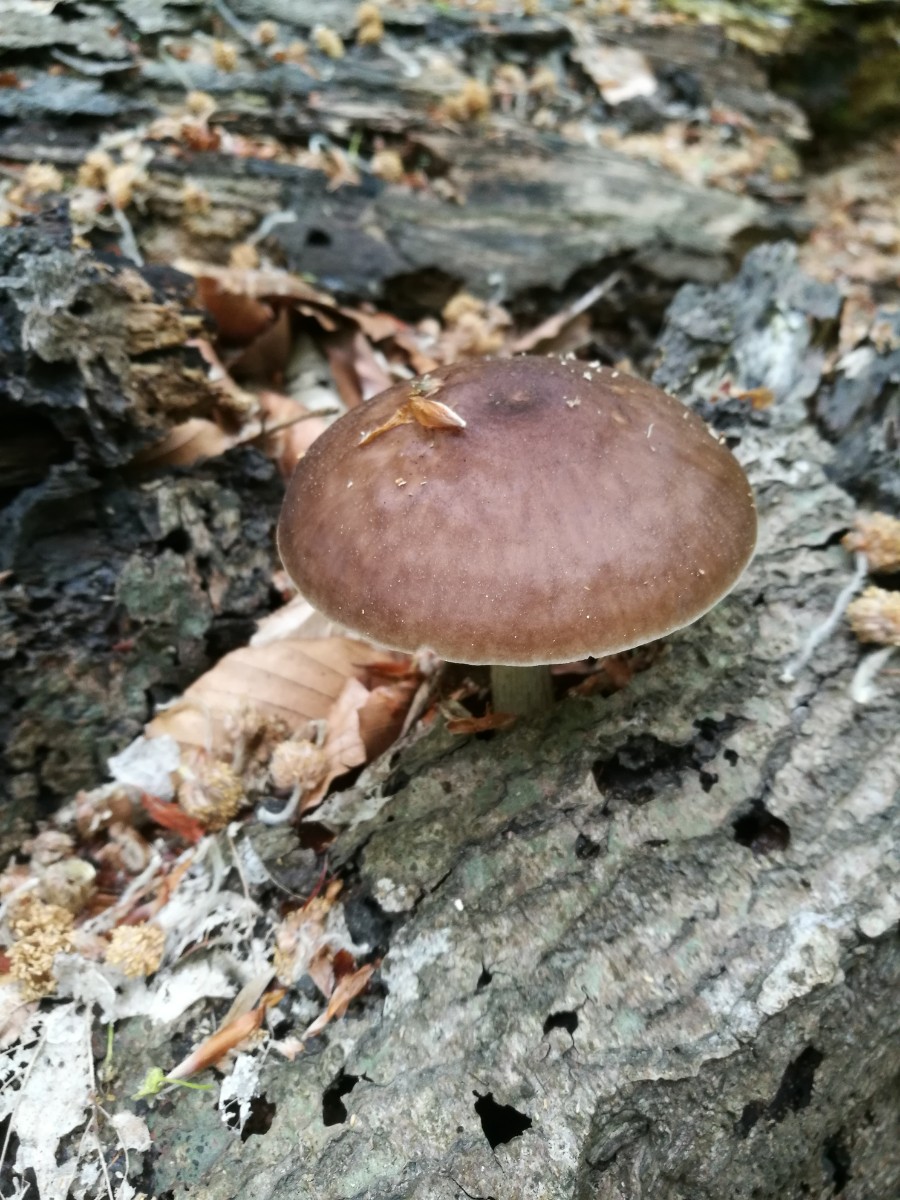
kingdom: Fungi
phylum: Basidiomycota
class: Agaricomycetes
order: Agaricales
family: Pluteaceae
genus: Pluteus
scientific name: Pluteus cervinus
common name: sodfarvet skærmhat
